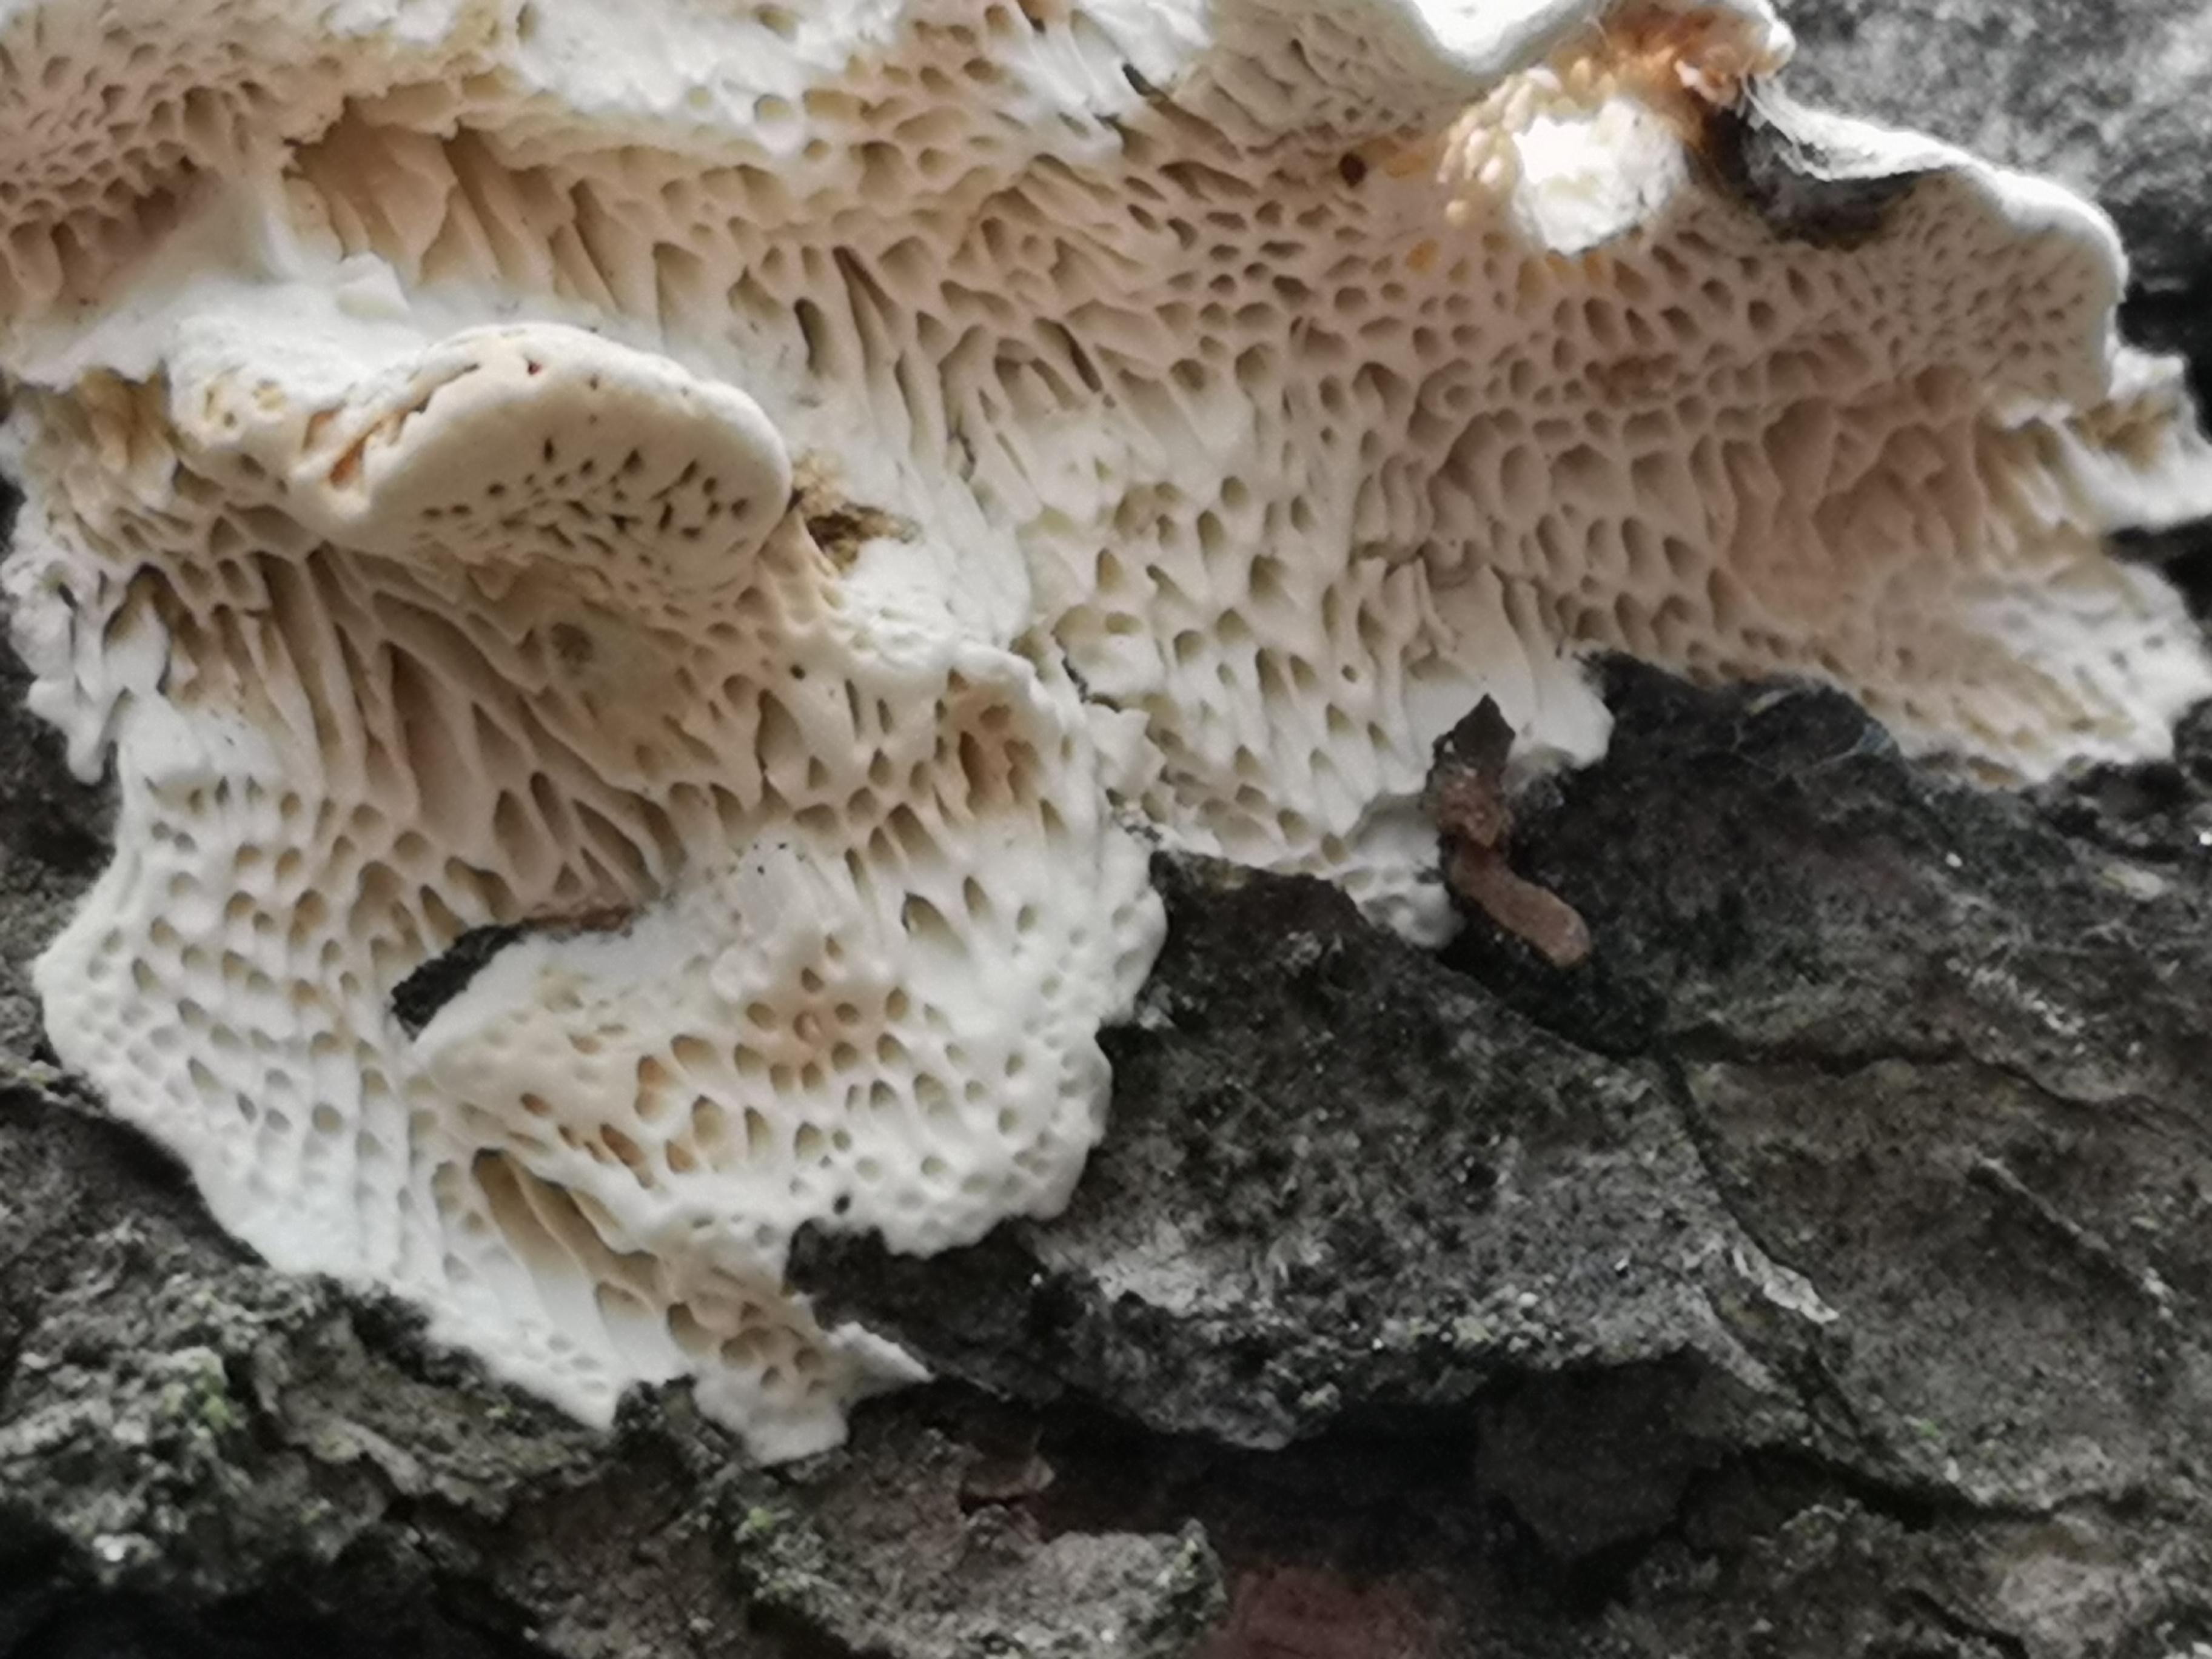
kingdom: Fungi
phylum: Basidiomycota
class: Agaricomycetes
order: Polyporales
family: Fomitopsidaceae
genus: Fomitopsis
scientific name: Fomitopsis
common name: fyrre-skiveporesvamp
